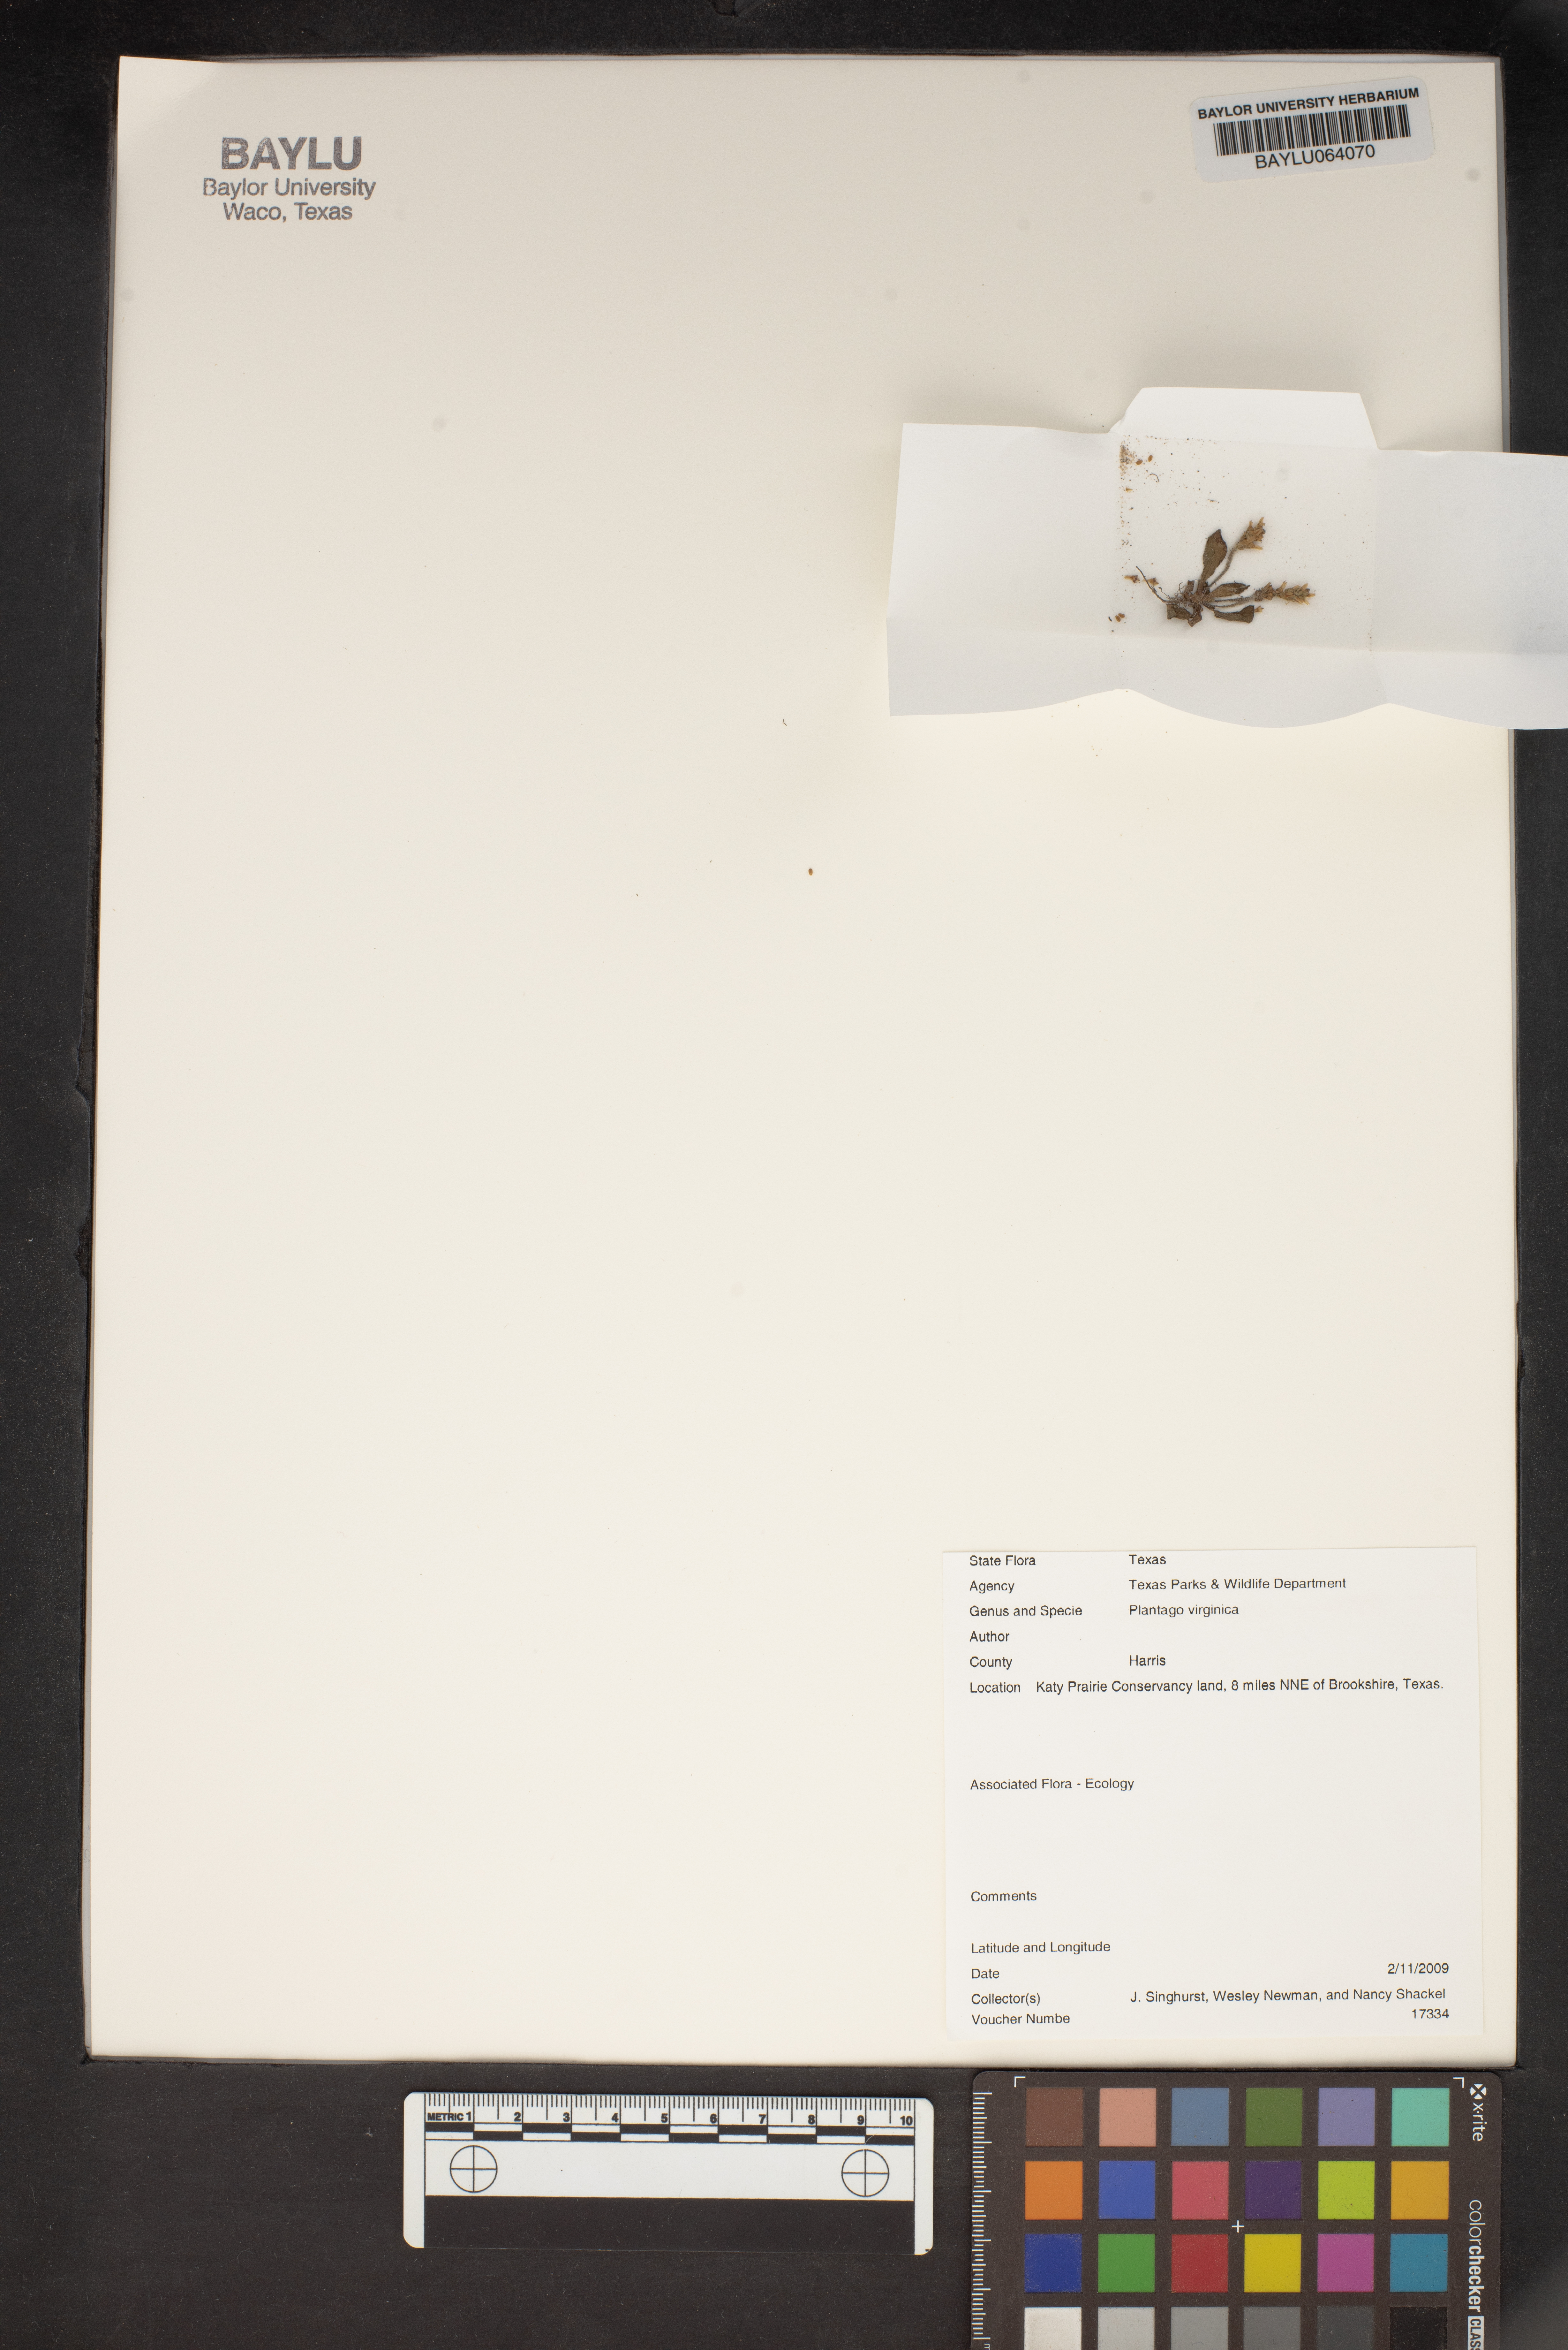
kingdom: Plantae
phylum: Tracheophyta
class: Magnoliopsida
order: Lamiales
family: Plantaginaceae
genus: Plantago
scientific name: Plantago virginica
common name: Hoary plantain
